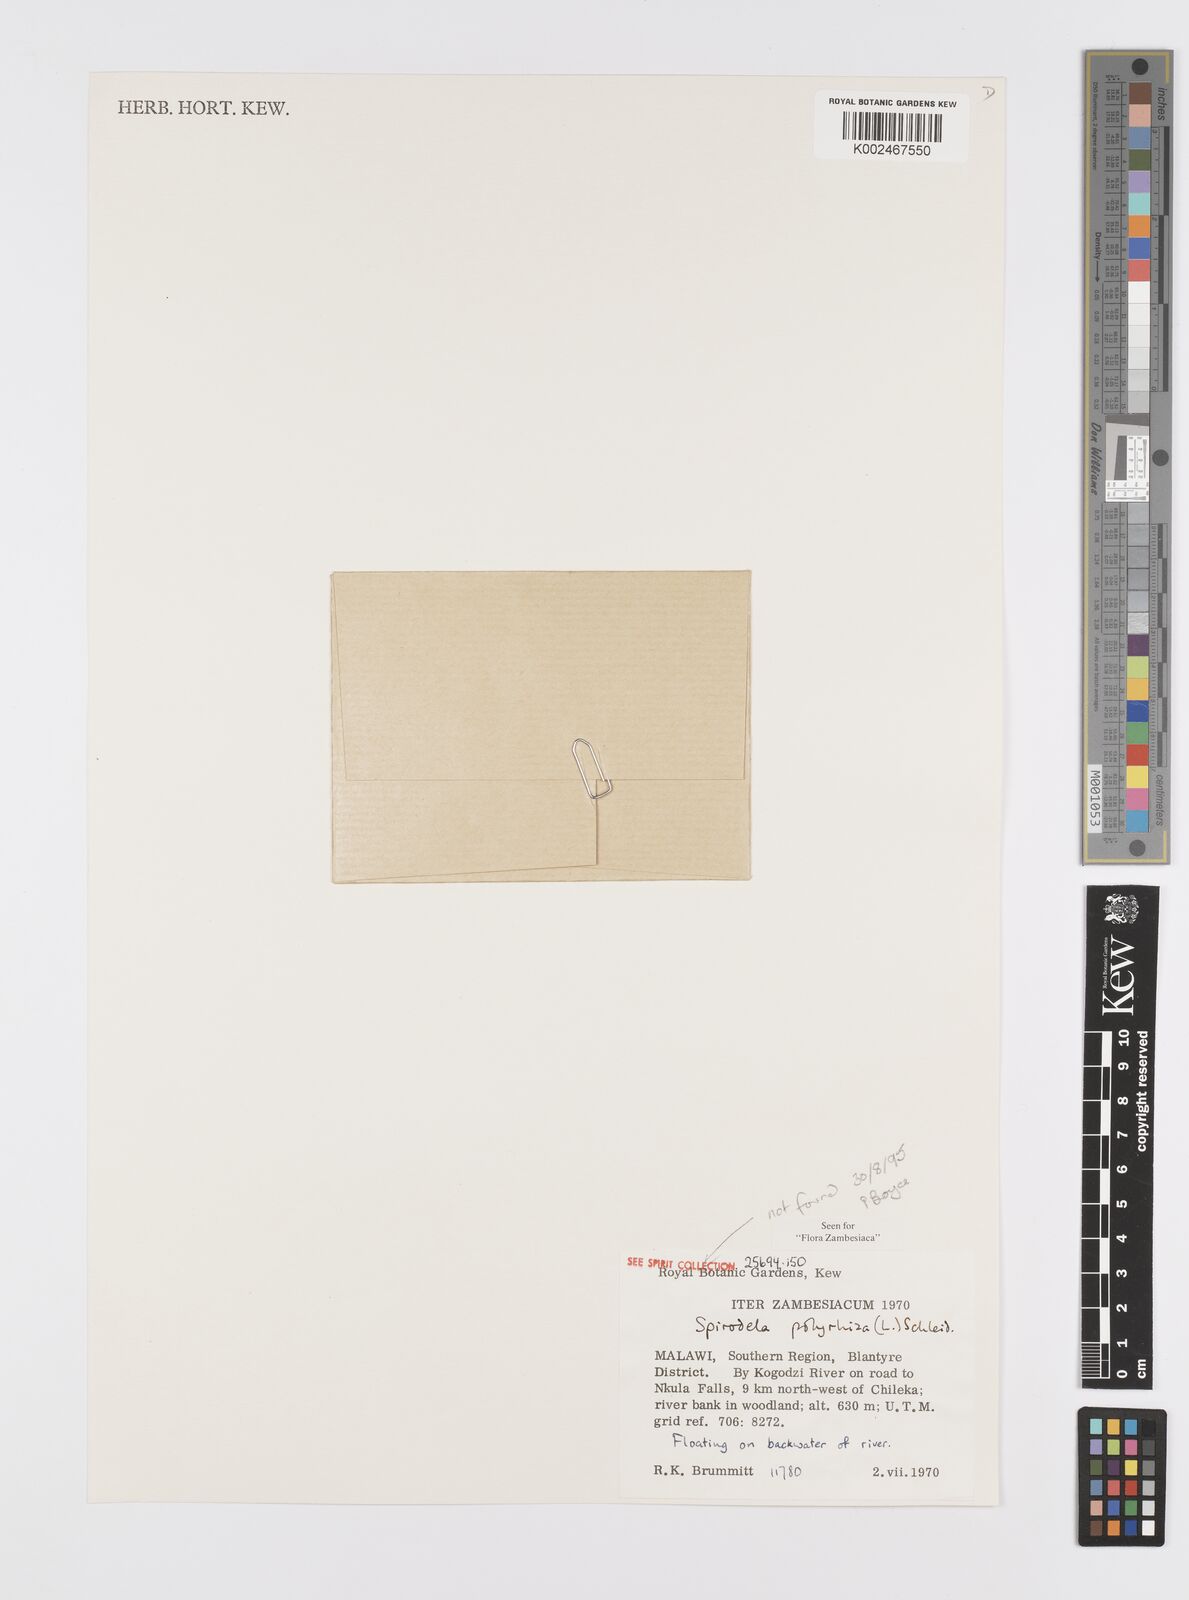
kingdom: Plantae
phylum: Tracheophyta
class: Liliopsida
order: Alismatales
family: Araceae
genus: Spirodela
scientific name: Spirodela polyrhiza
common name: Great duckweed
